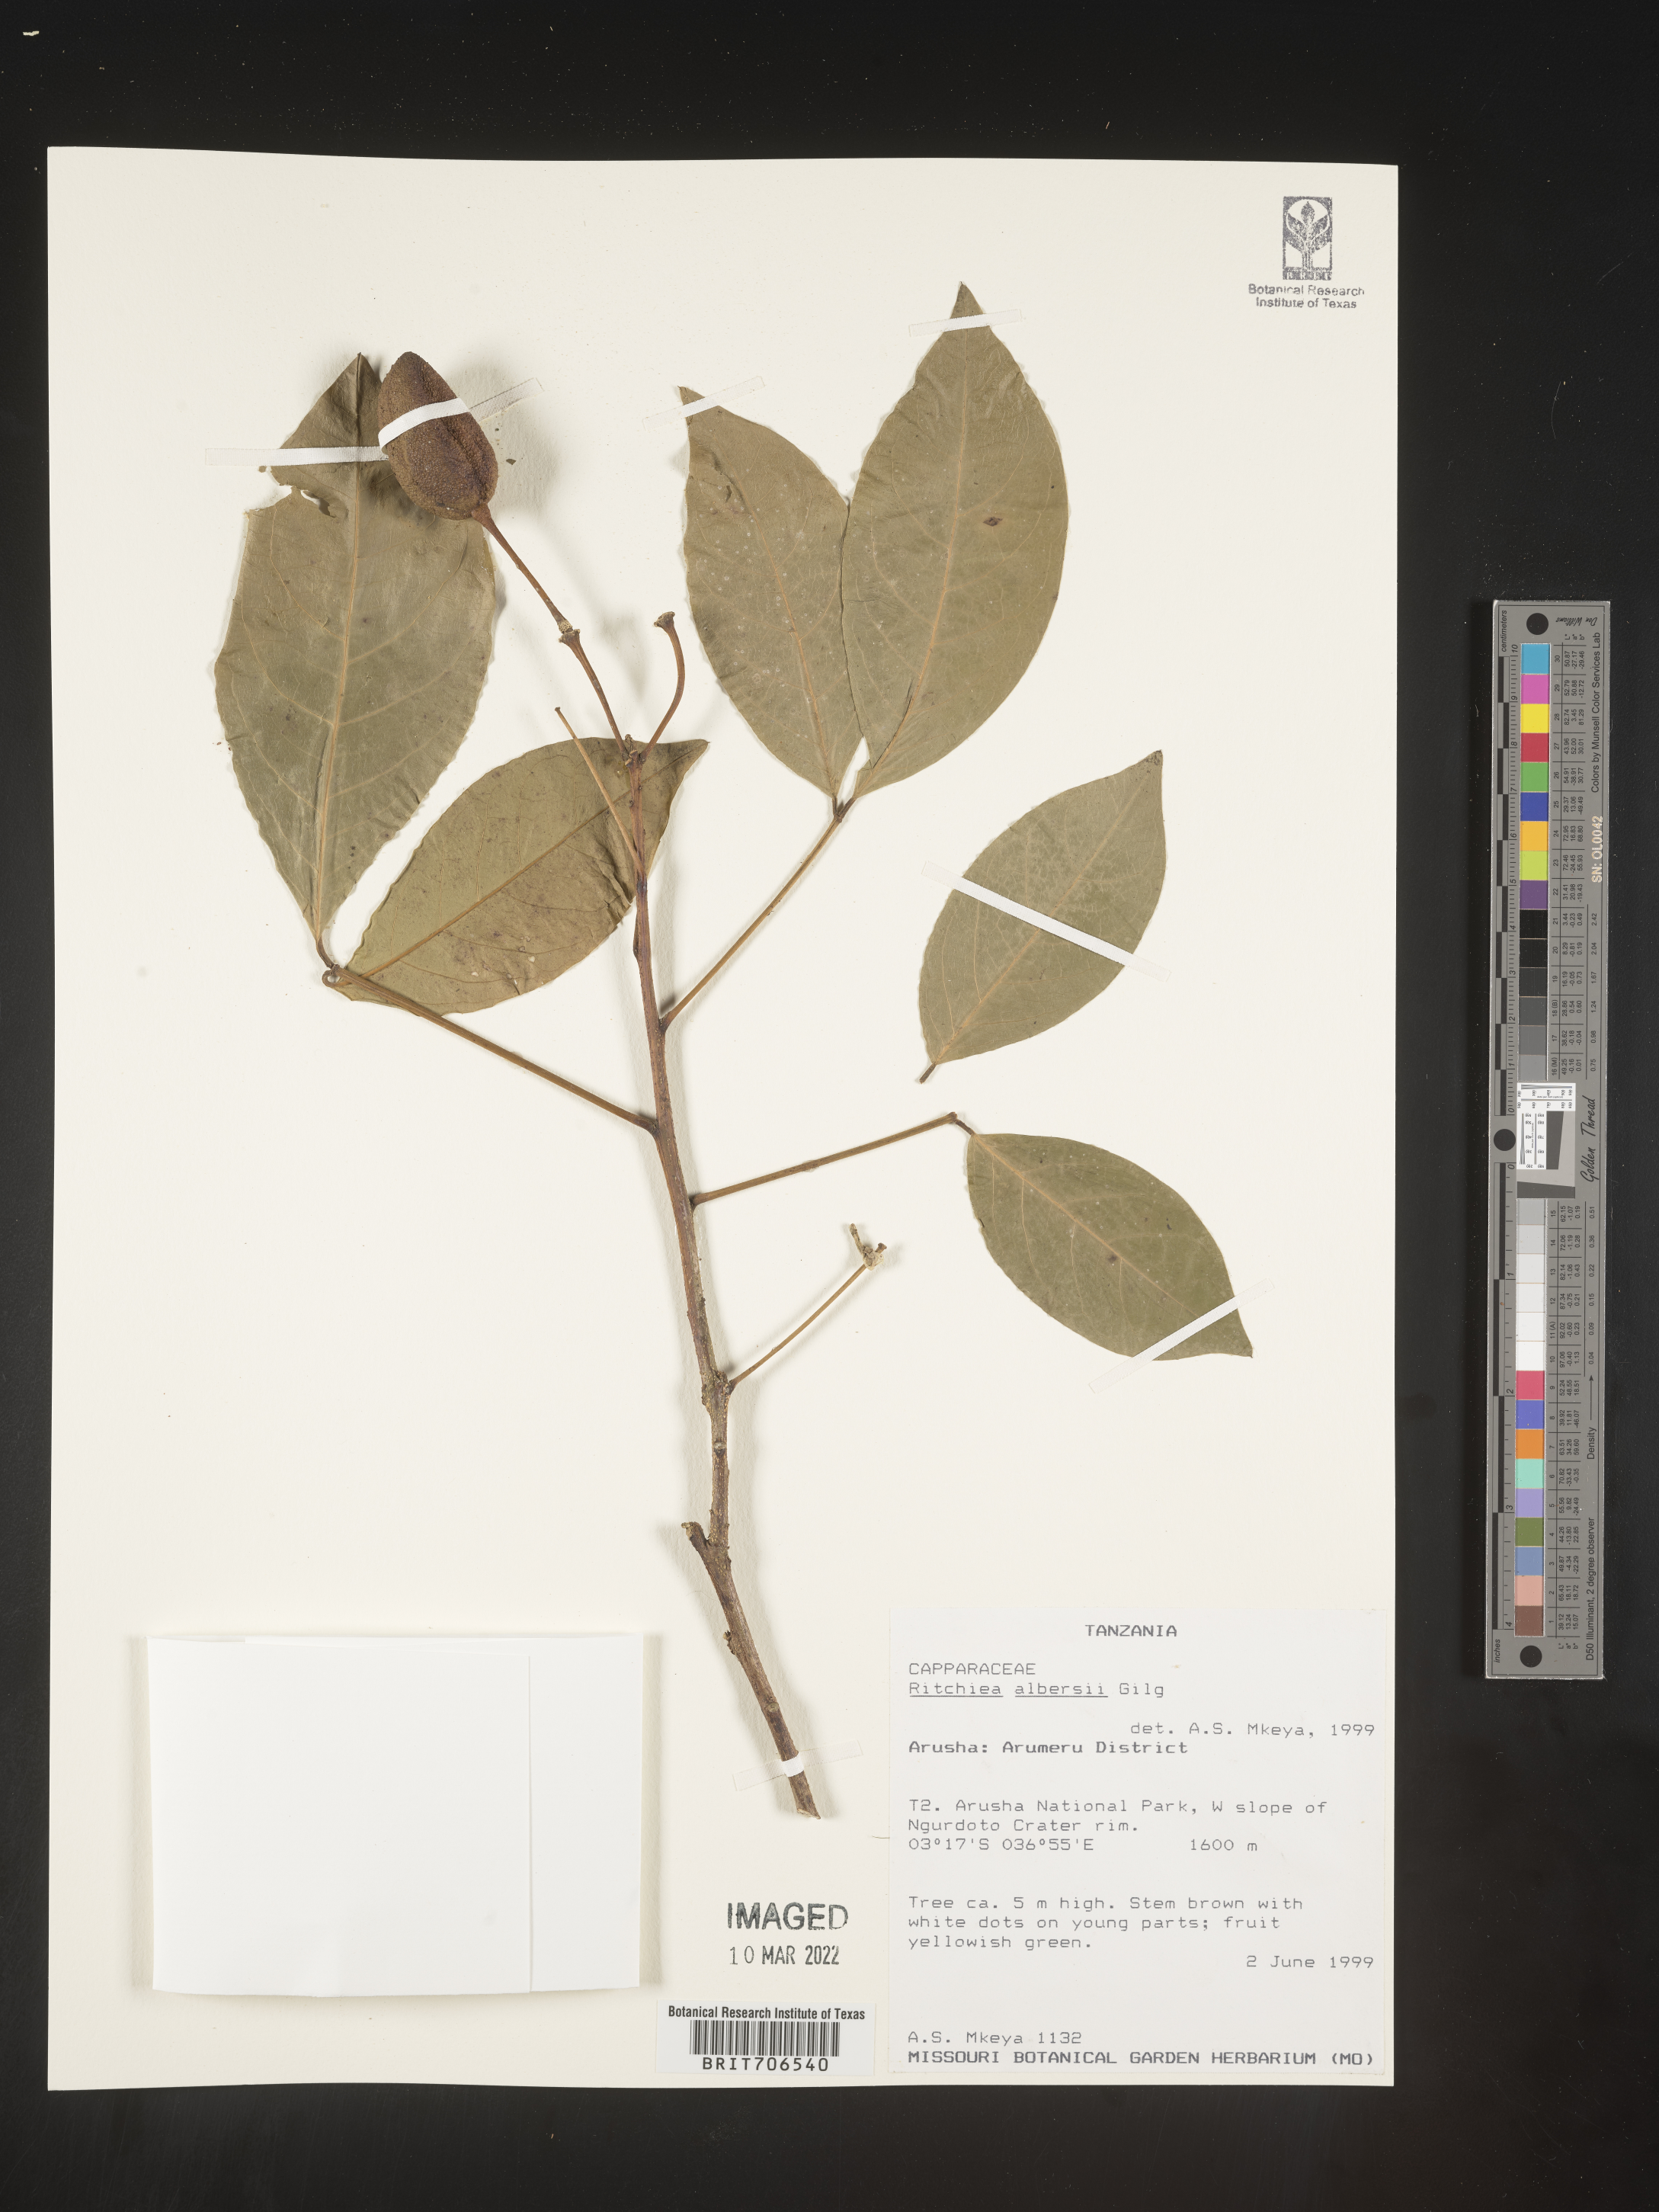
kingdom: Plantae
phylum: Tracheophyta
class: Magnoliopsida
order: Brassicales
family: Capparaceae
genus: Ritchiea
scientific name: Ritchiea
